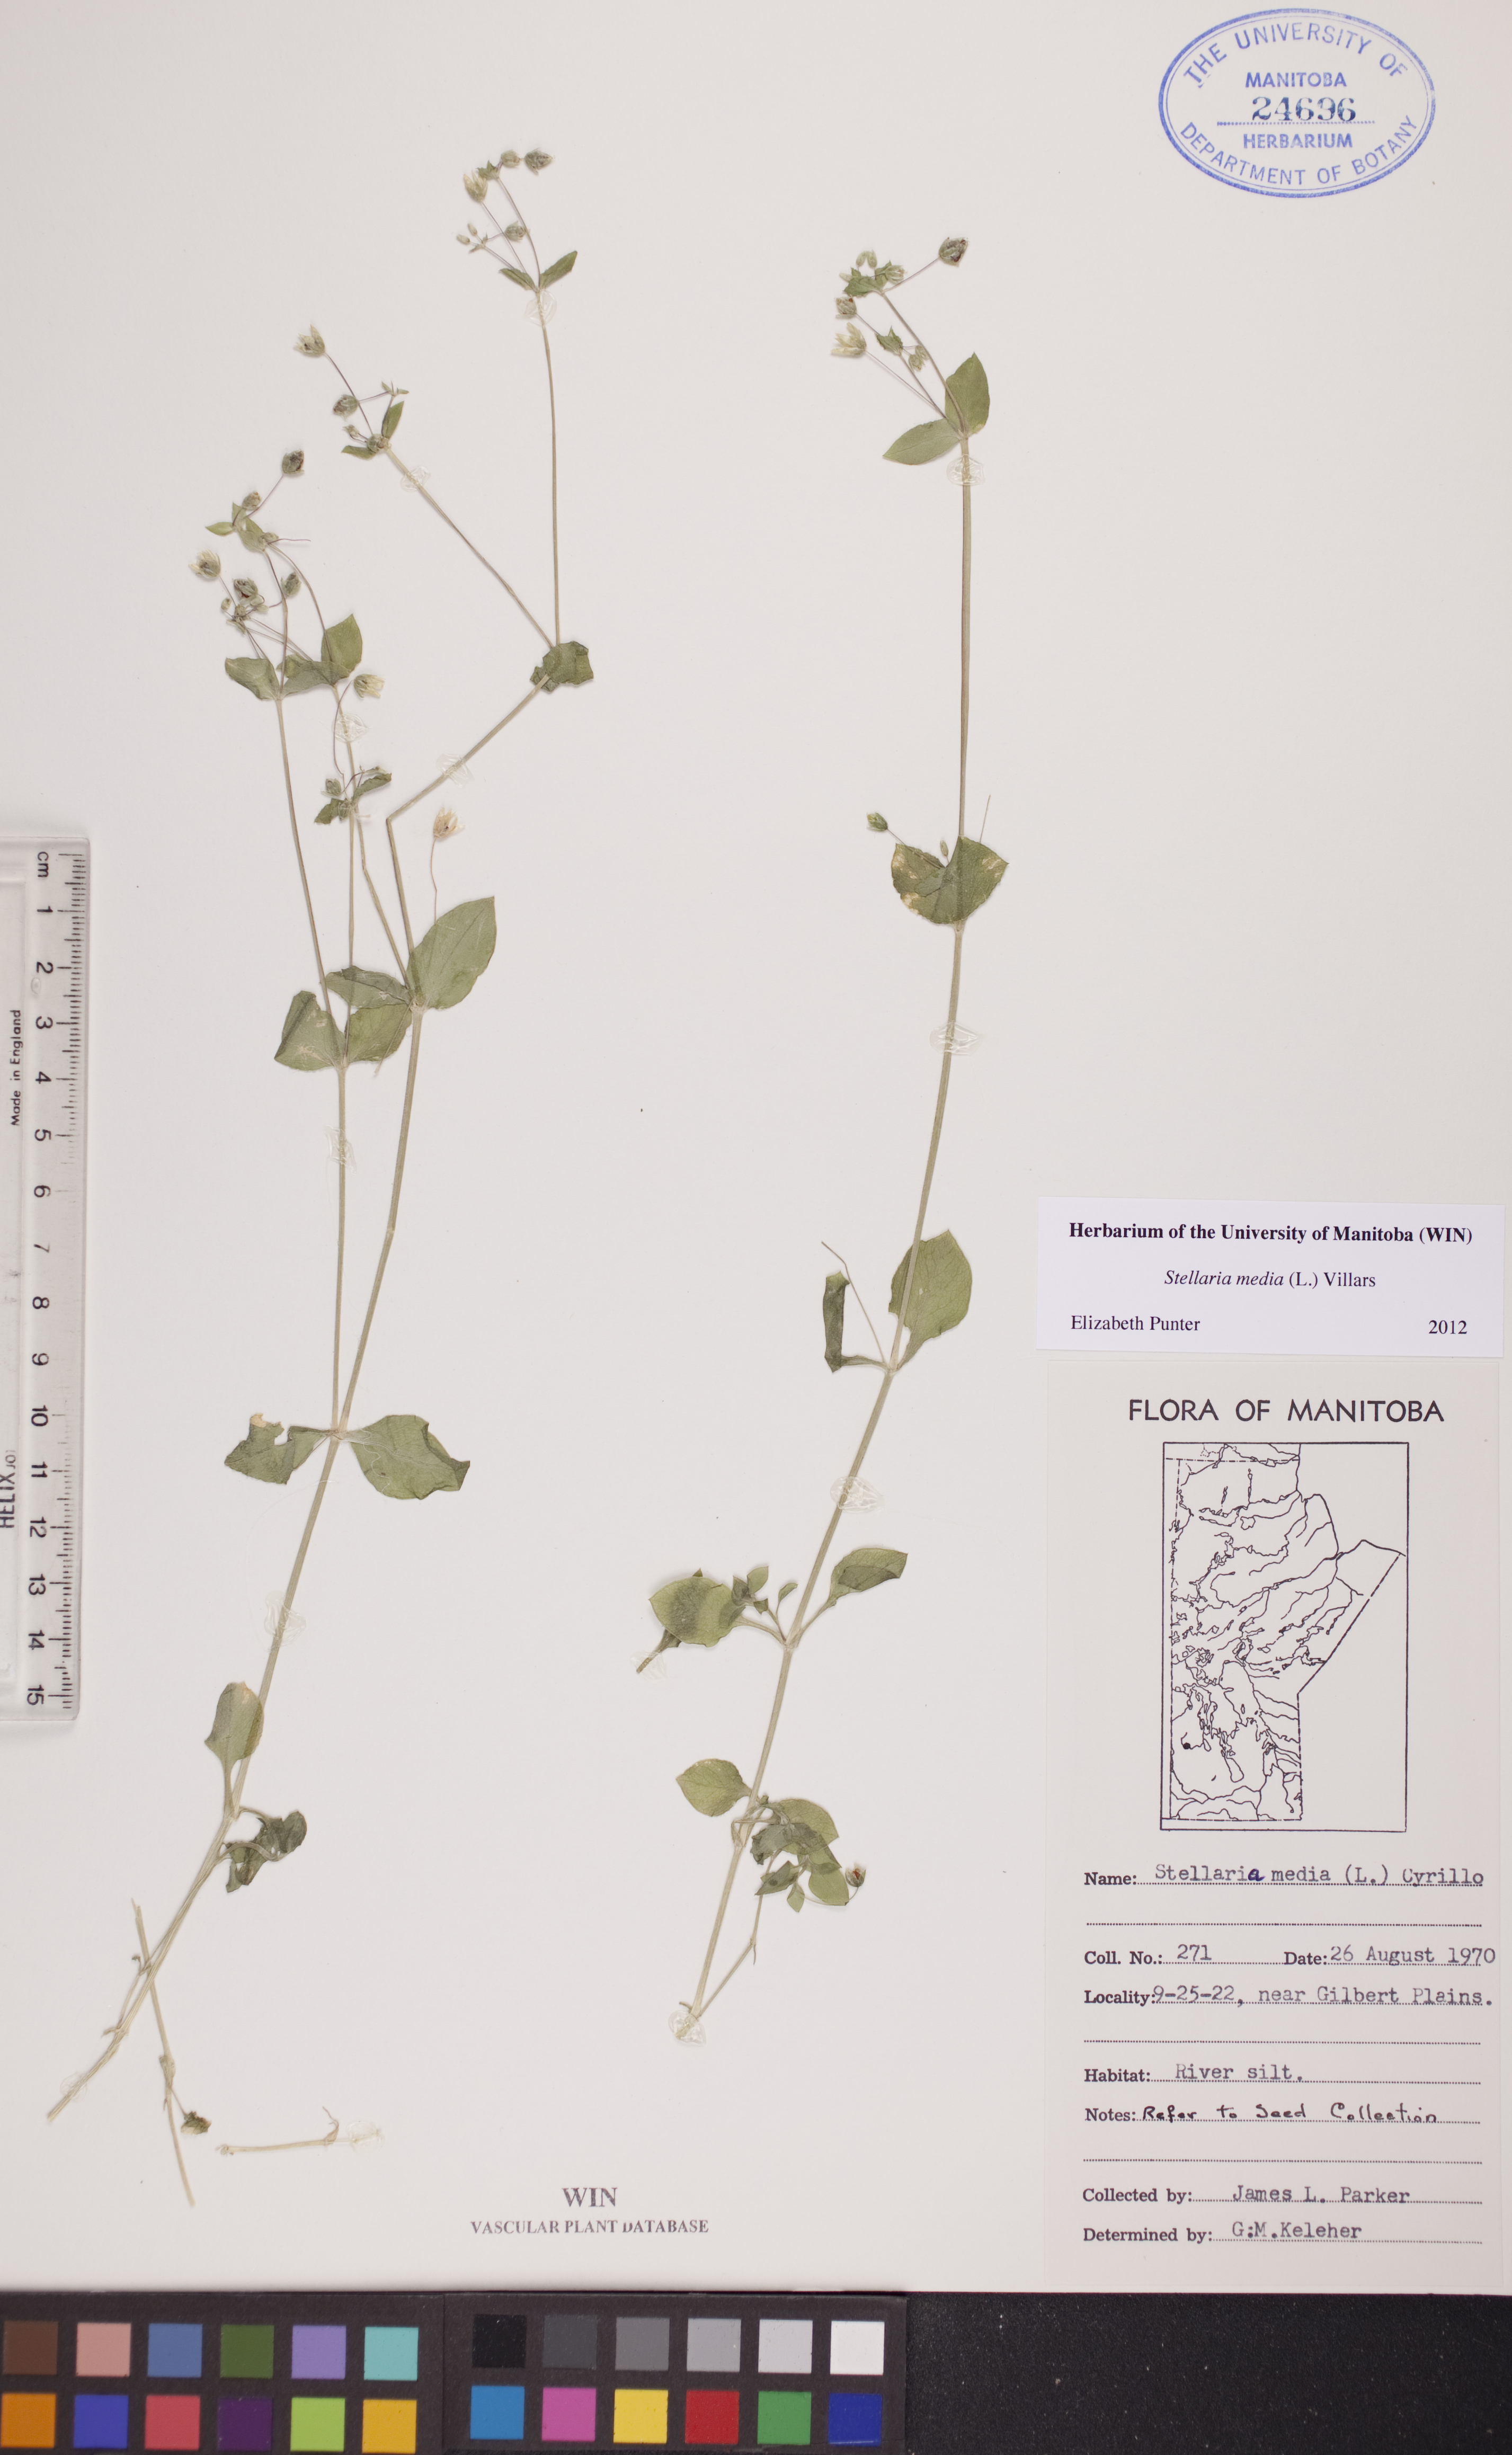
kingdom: Plantae
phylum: Tracheophyta
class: Magnoliopsida
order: Caryophyllales
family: Caryophyllaceae
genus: Stellaria
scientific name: Stellaria media
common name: Common chickweed
